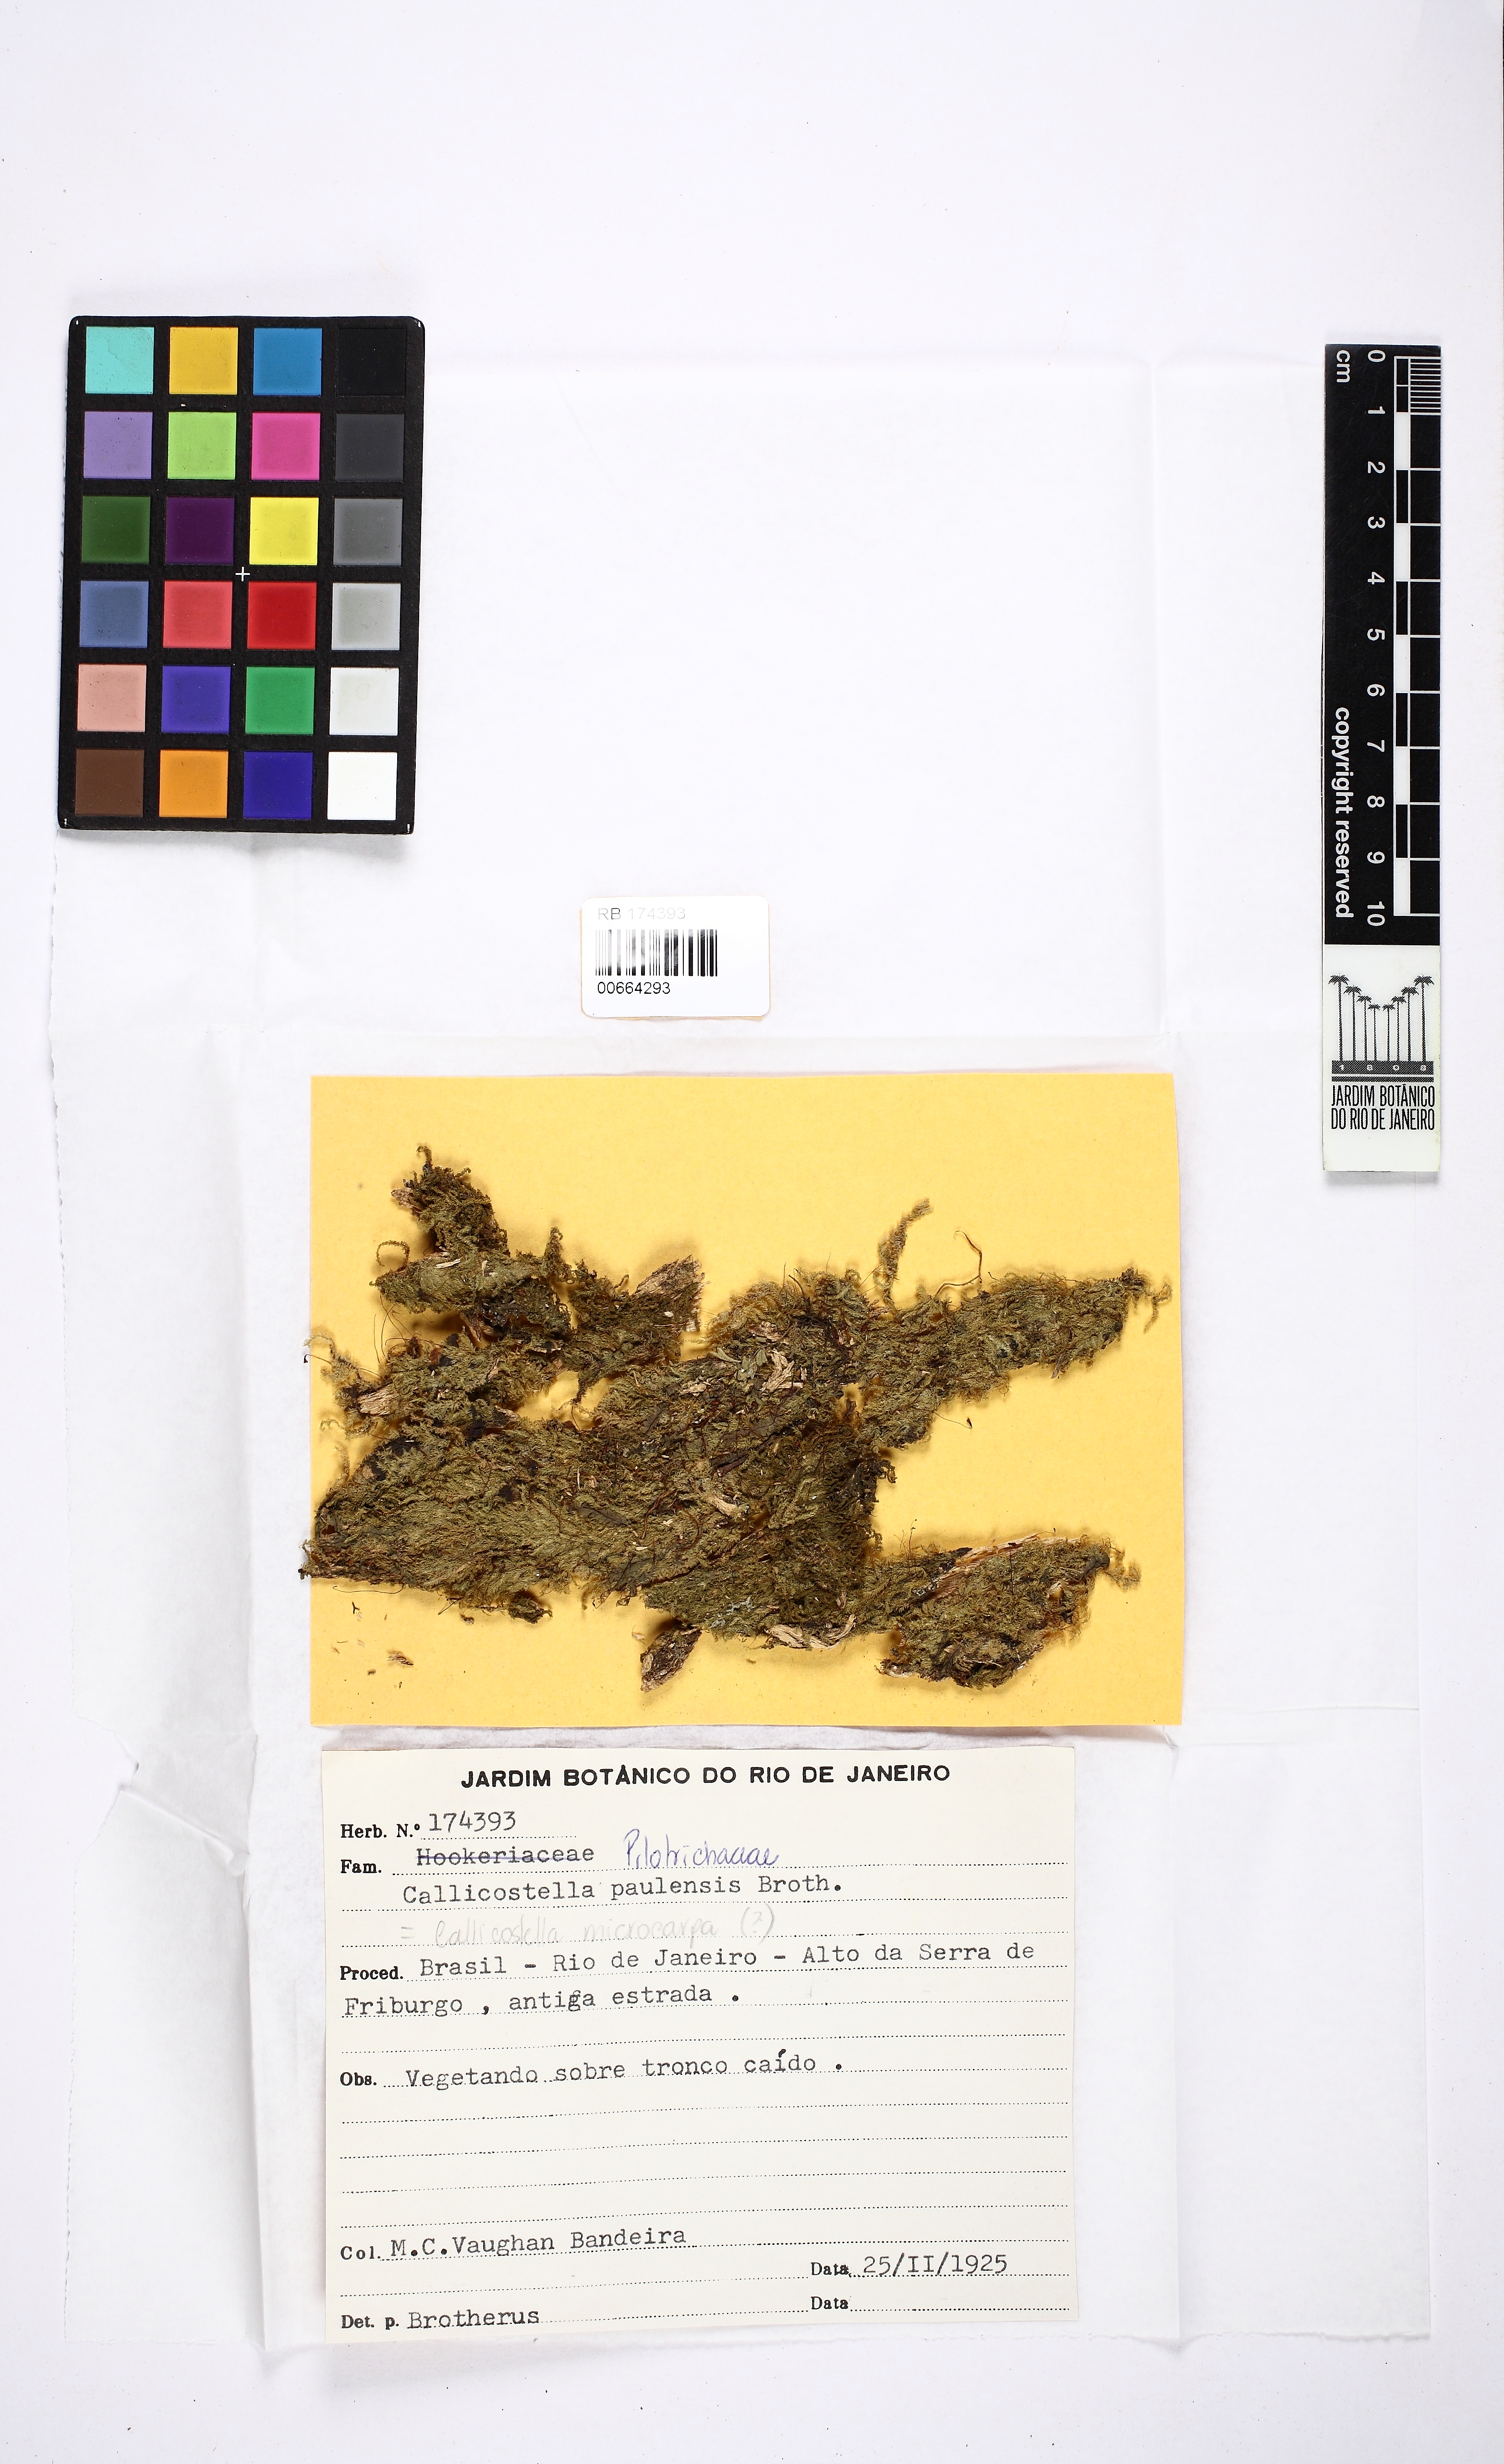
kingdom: Plantae
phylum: Bryophyta
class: Bryopsida
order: Hookeriales
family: Pilotrichaceae
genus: Callicostella
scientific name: Callicostella paulensis
